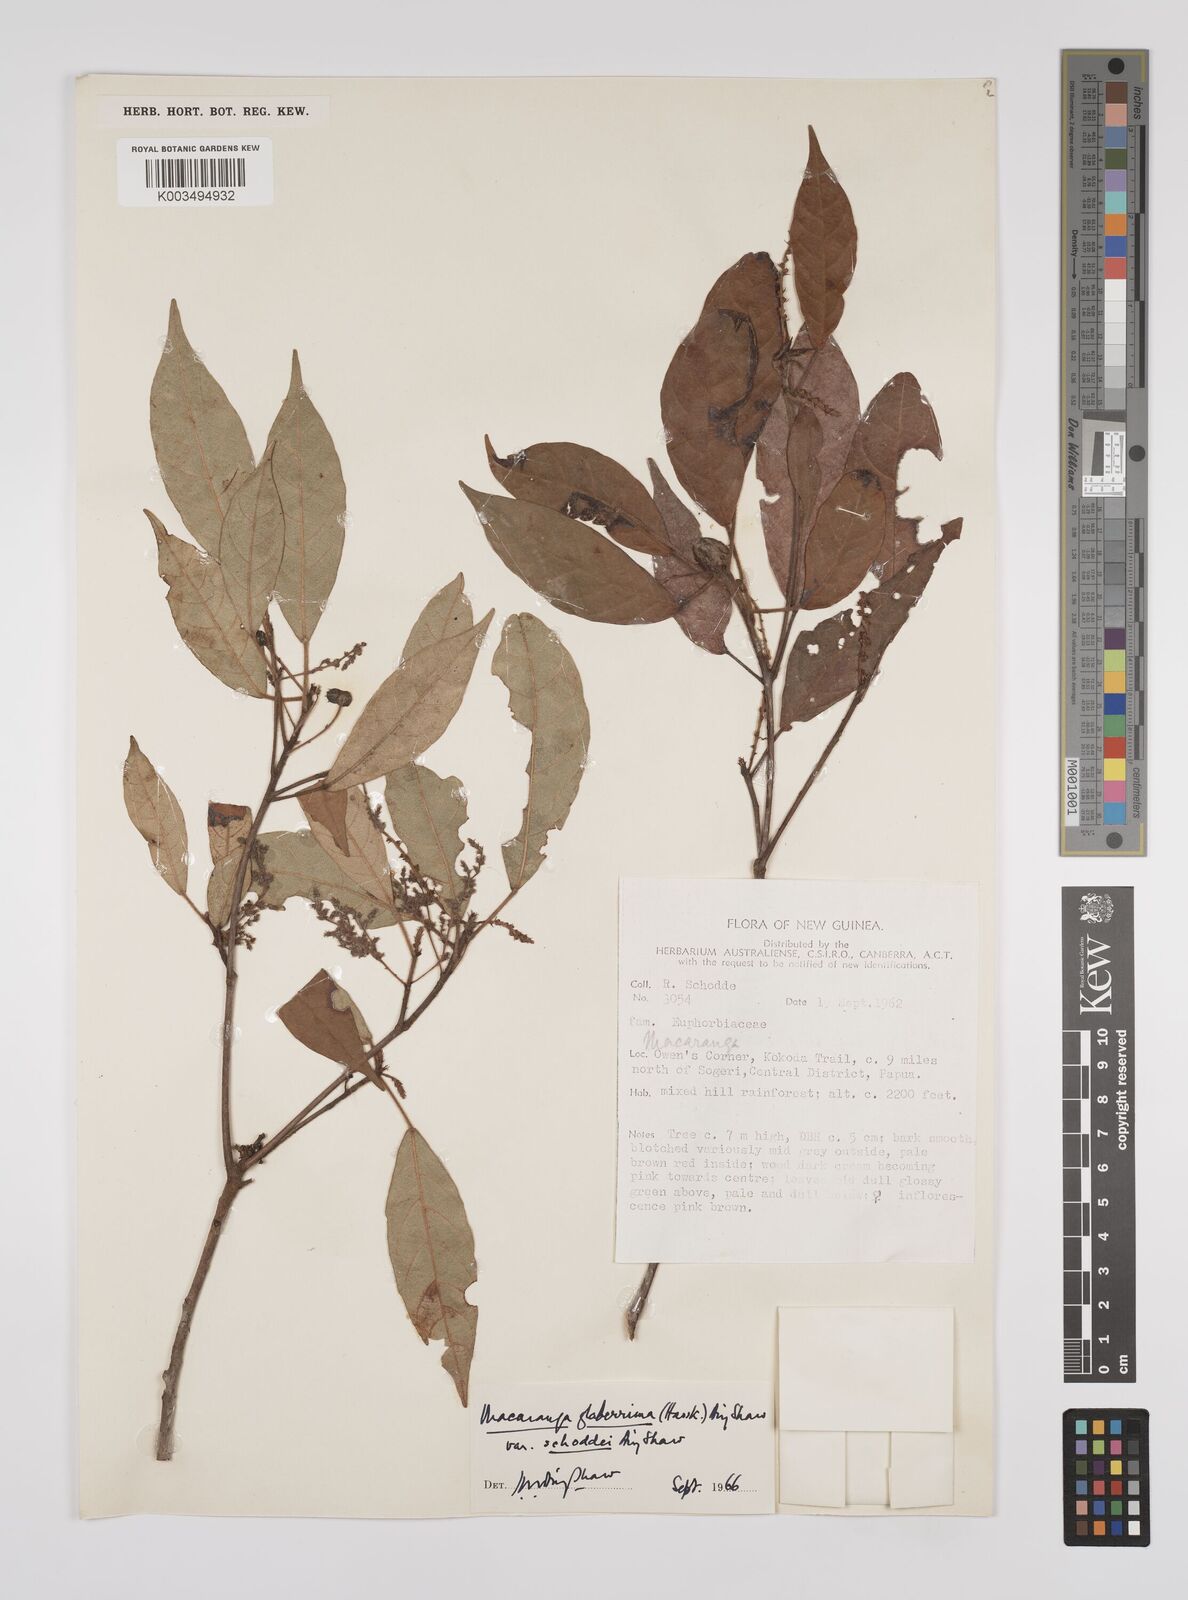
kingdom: Plantae
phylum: Tracheophyta
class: Magnoliopsida
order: Malpighiales
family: Euphorbiaceae
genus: Macaranga
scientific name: Macaranga glaberrima
